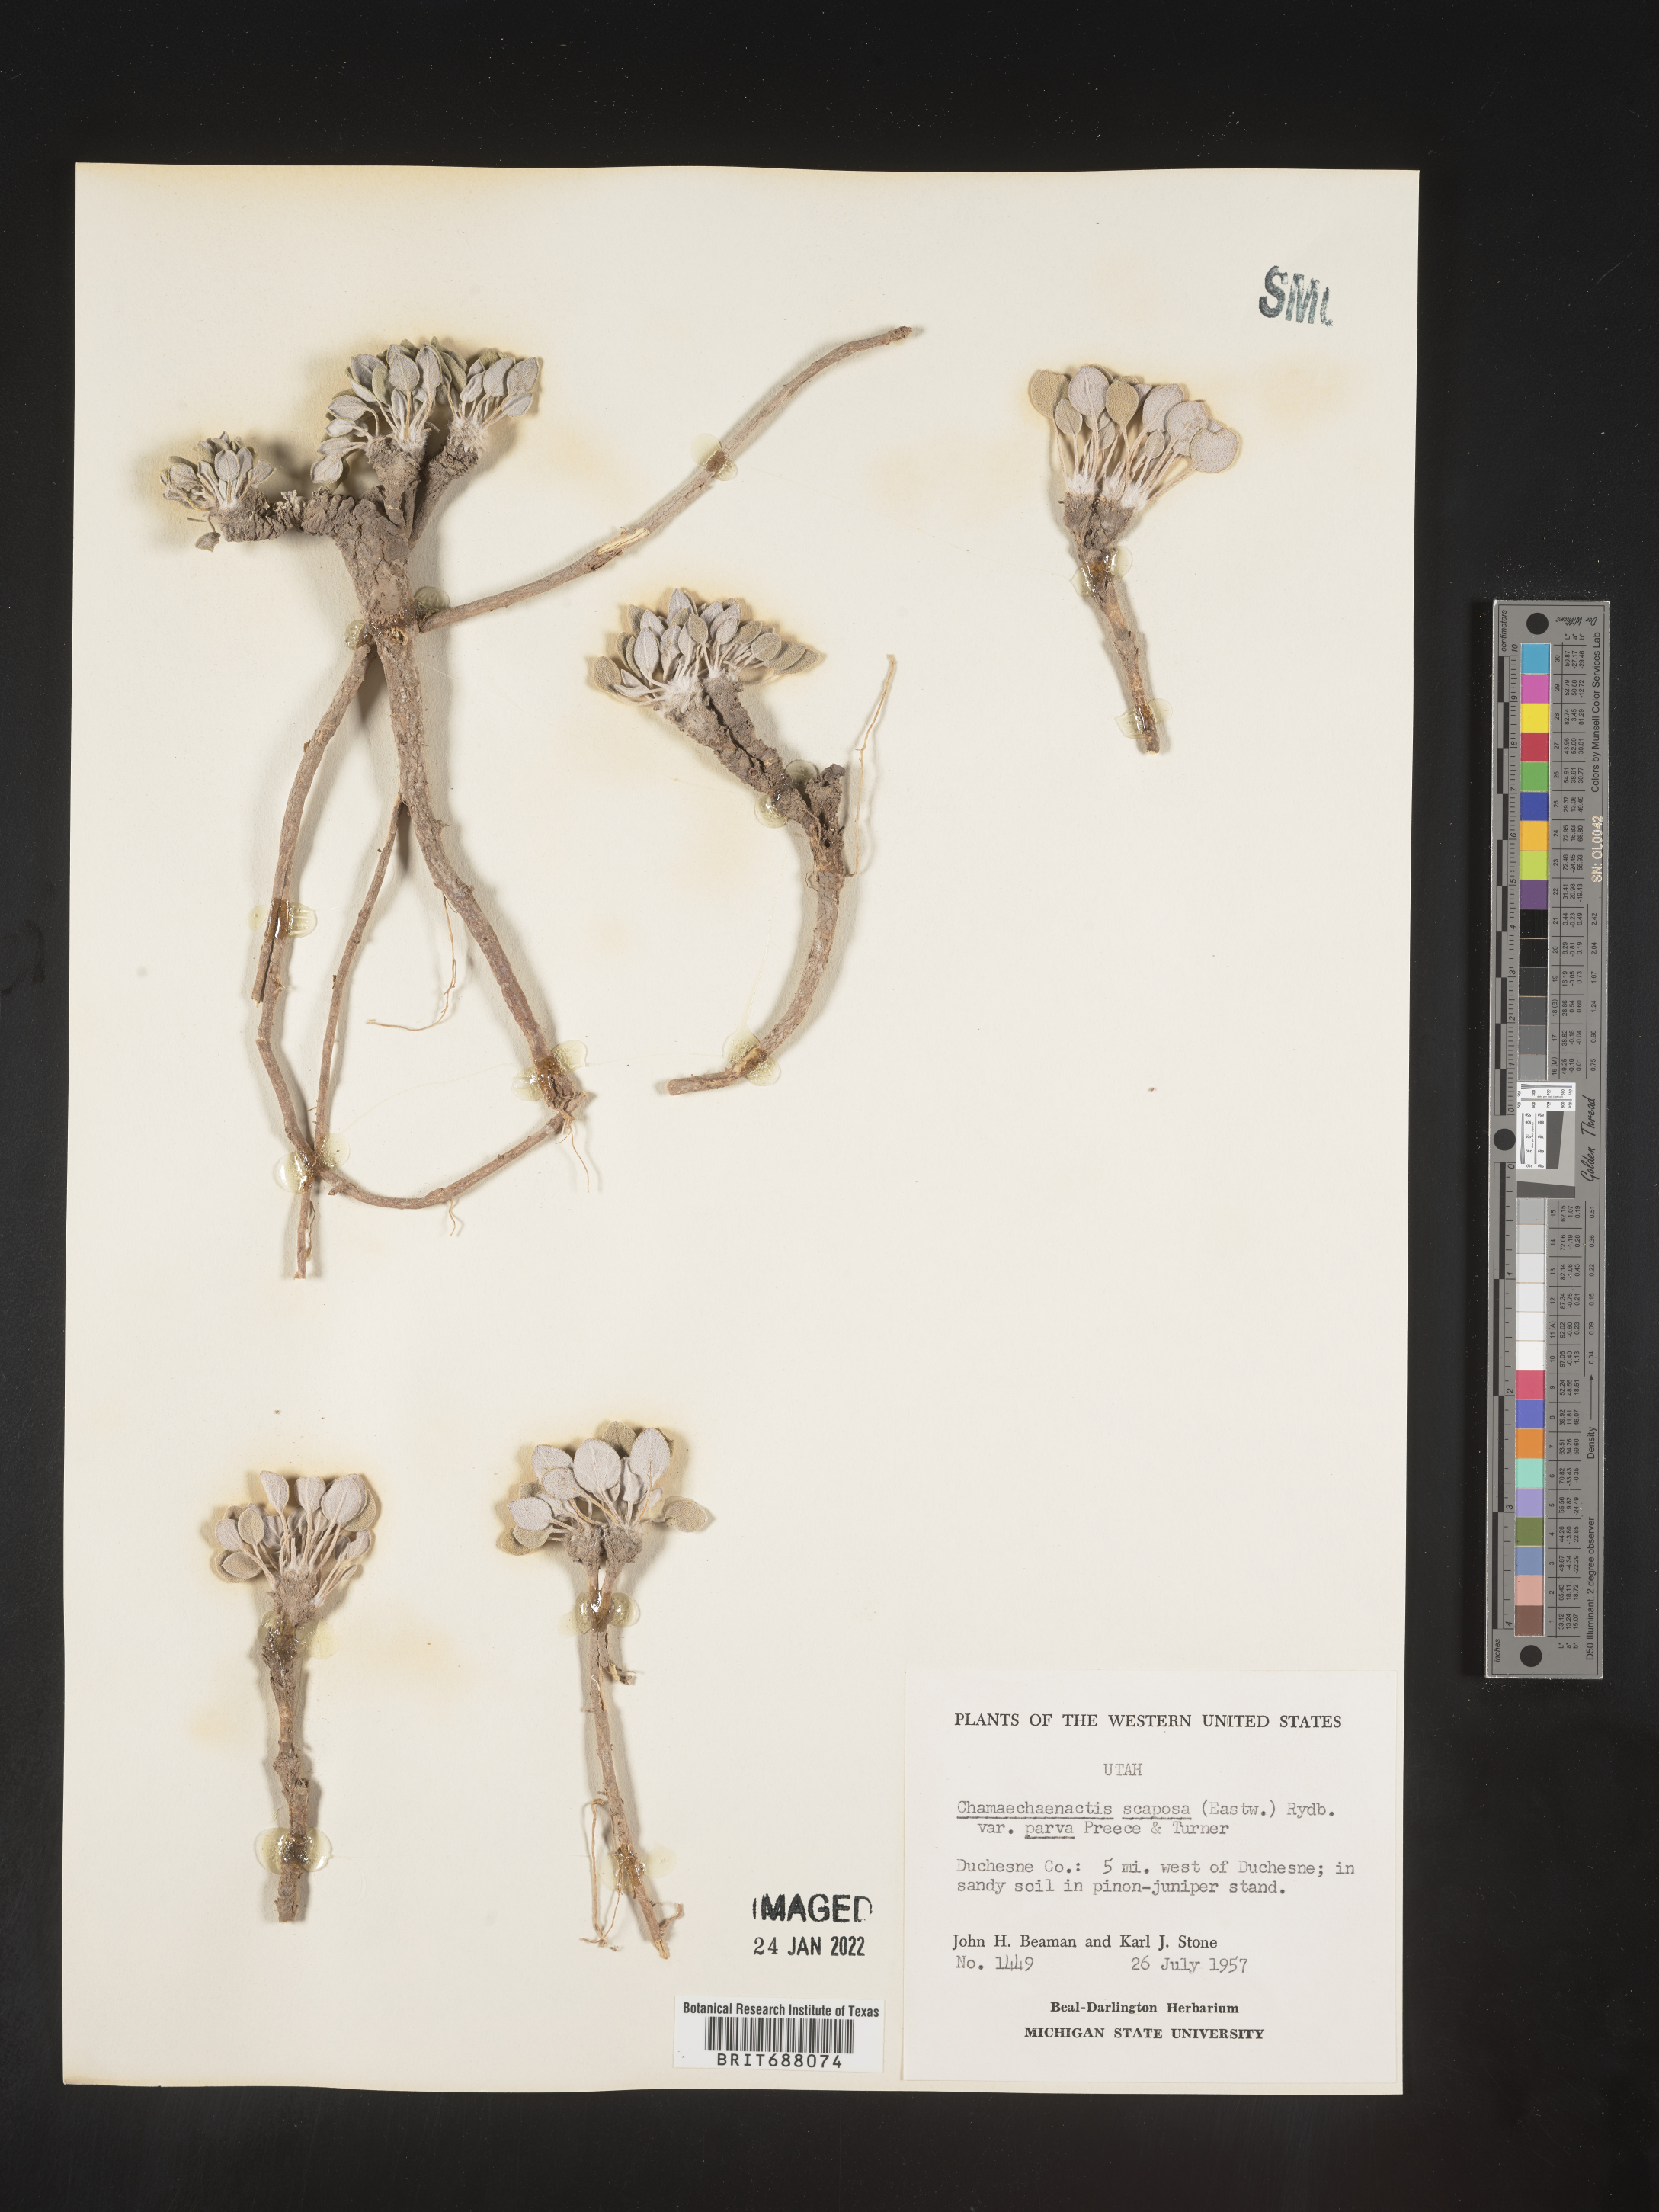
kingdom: Plantae
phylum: Tracheophyta
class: Magnoliopsida
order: Asterales
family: Asteraceae
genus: Chamaechaenactis
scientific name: Chamaechaenactis
